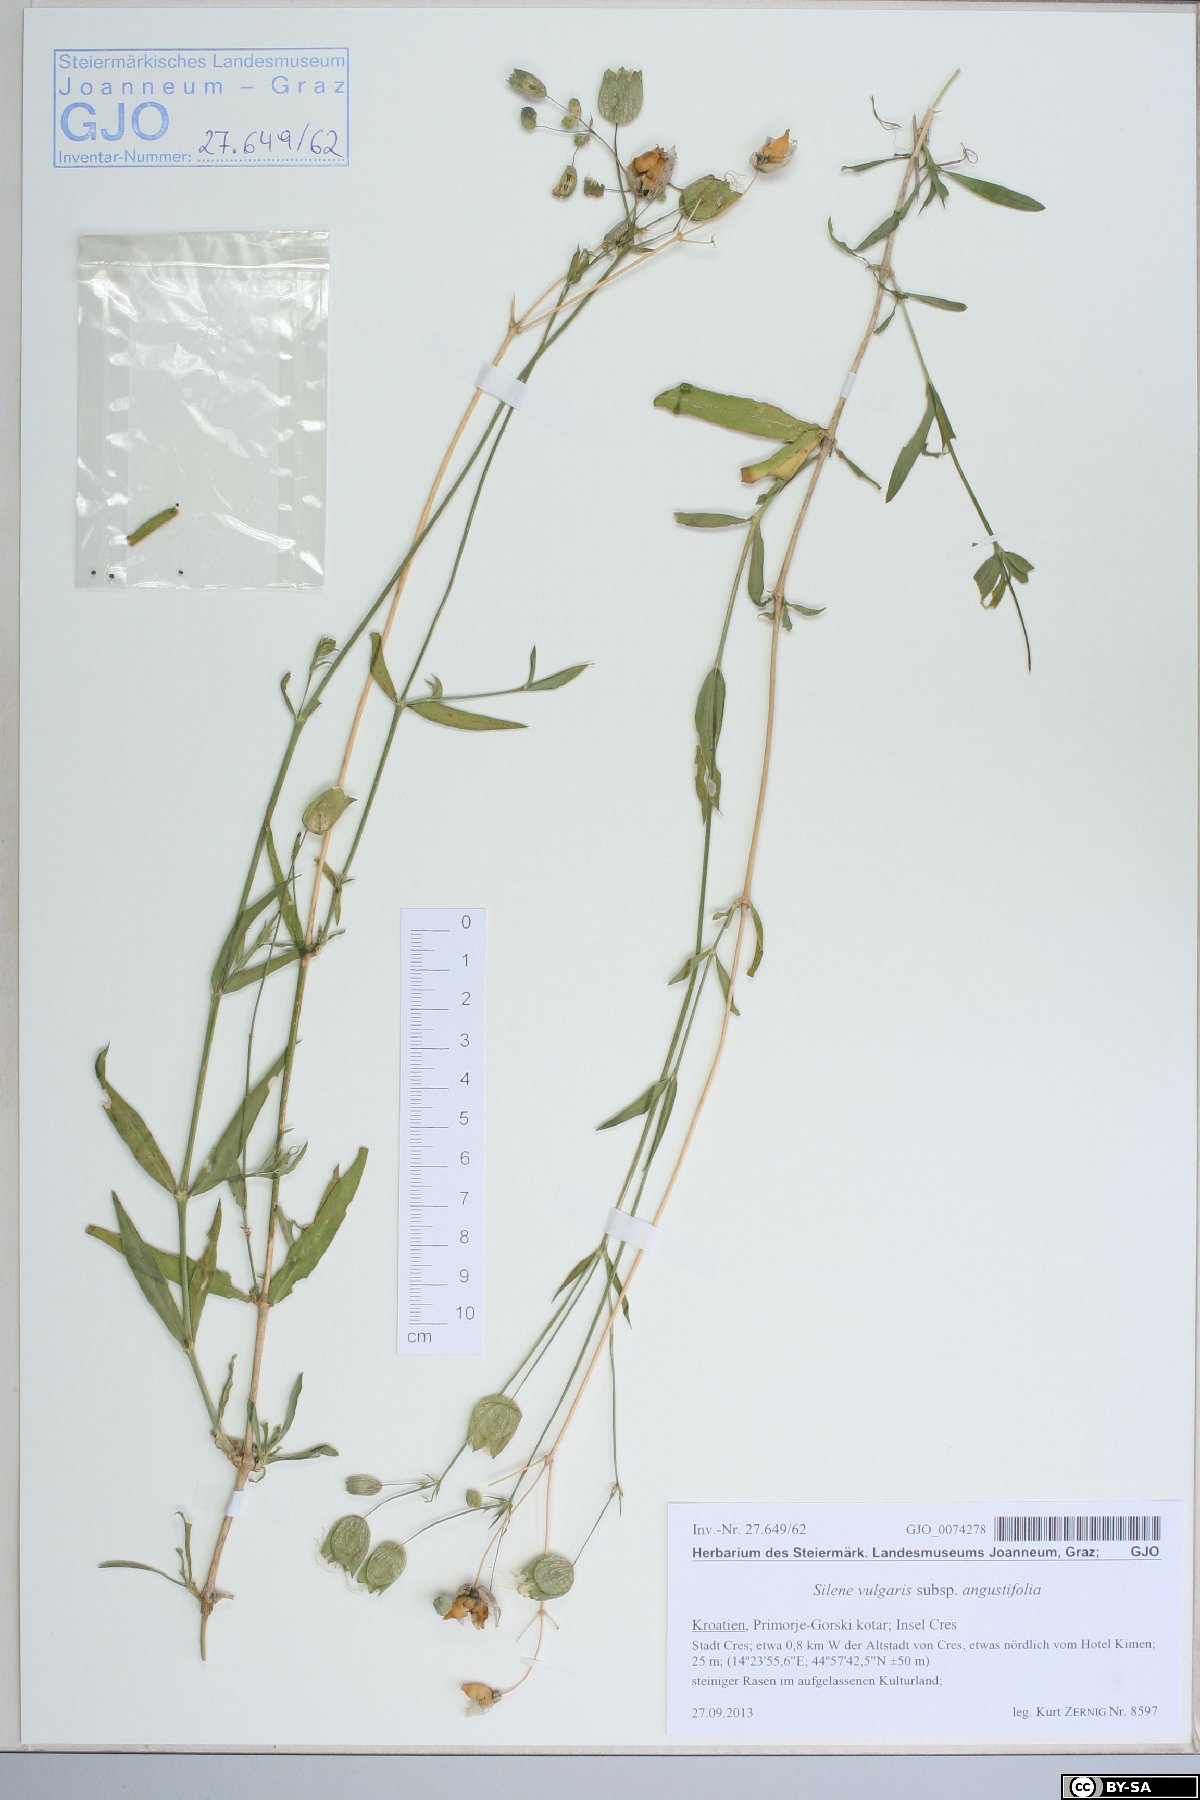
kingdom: Plantae
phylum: Tracheophyta
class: Magnoliopsida
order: Caryophyllales
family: Caryophyllaceae
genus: Silene
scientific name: Silene vulgaris
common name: Bladder campion
